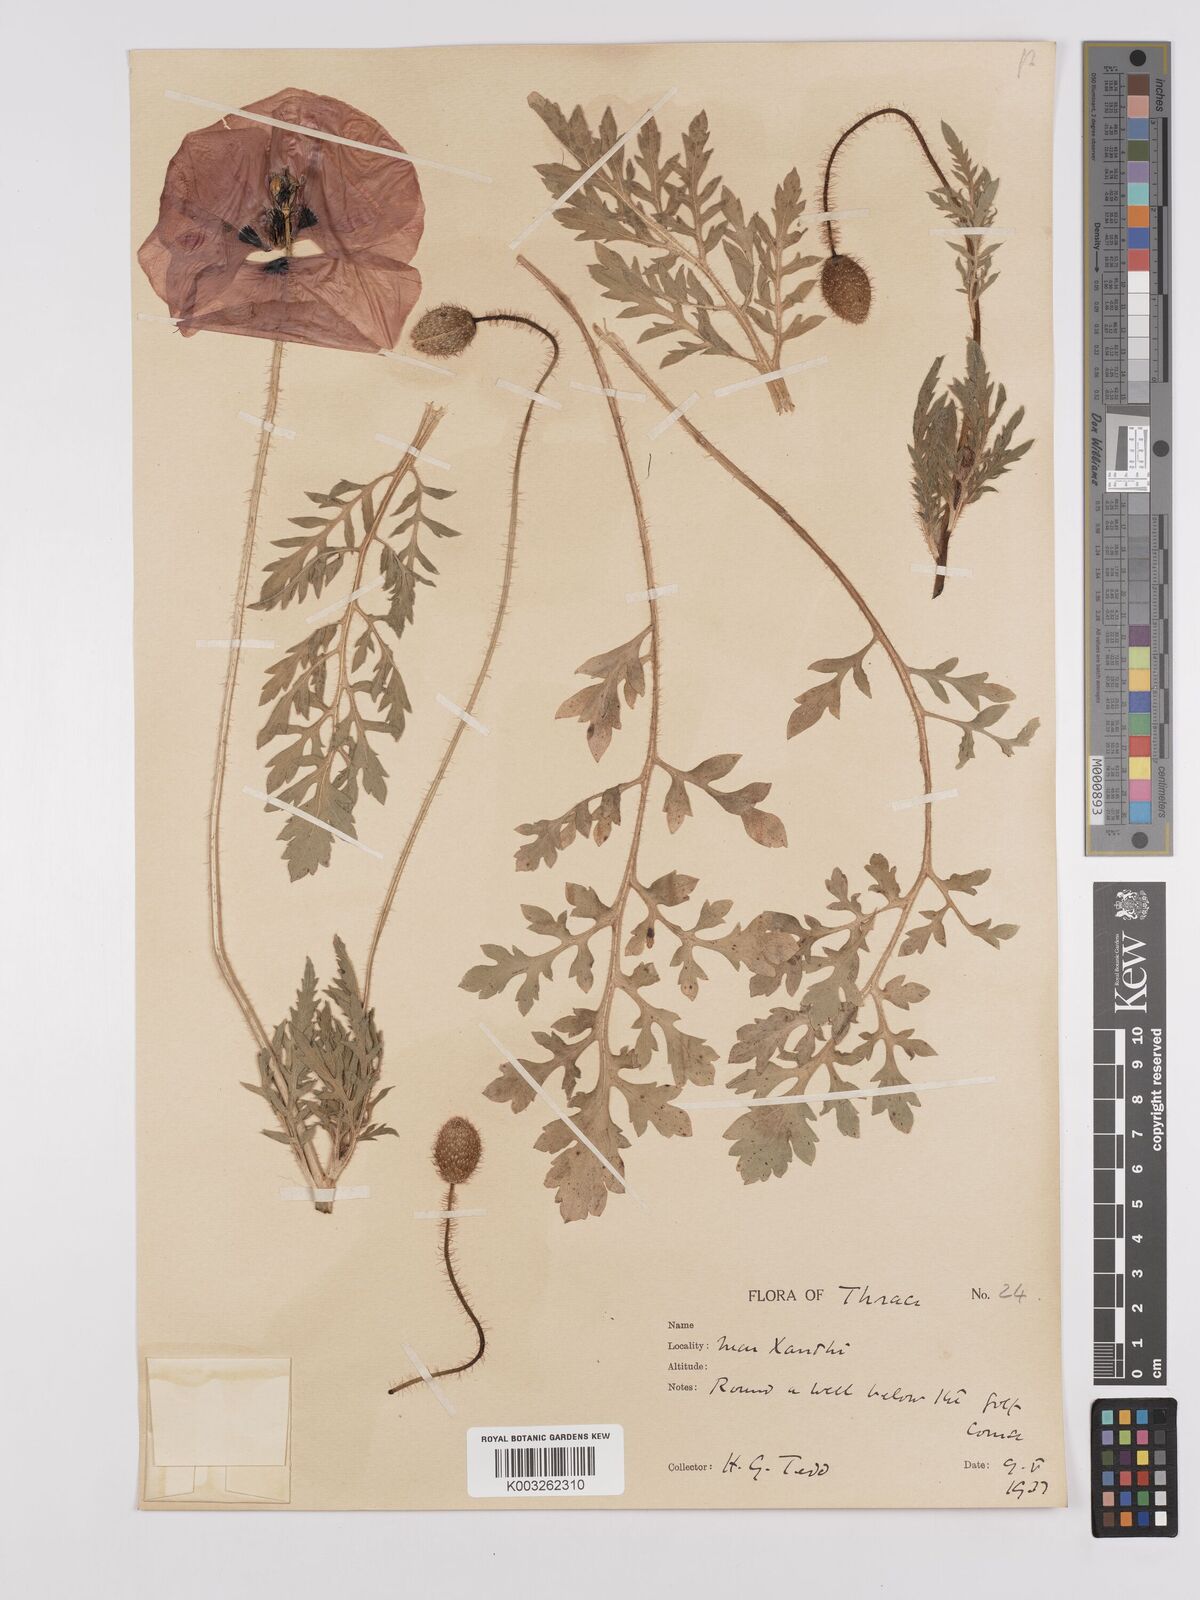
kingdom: Plantae
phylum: Tracheophyta
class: Magnoliopsida
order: Ranunculales
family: Papaveraceae
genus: Papaver
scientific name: Papaver rhoeas
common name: Corn poppy
